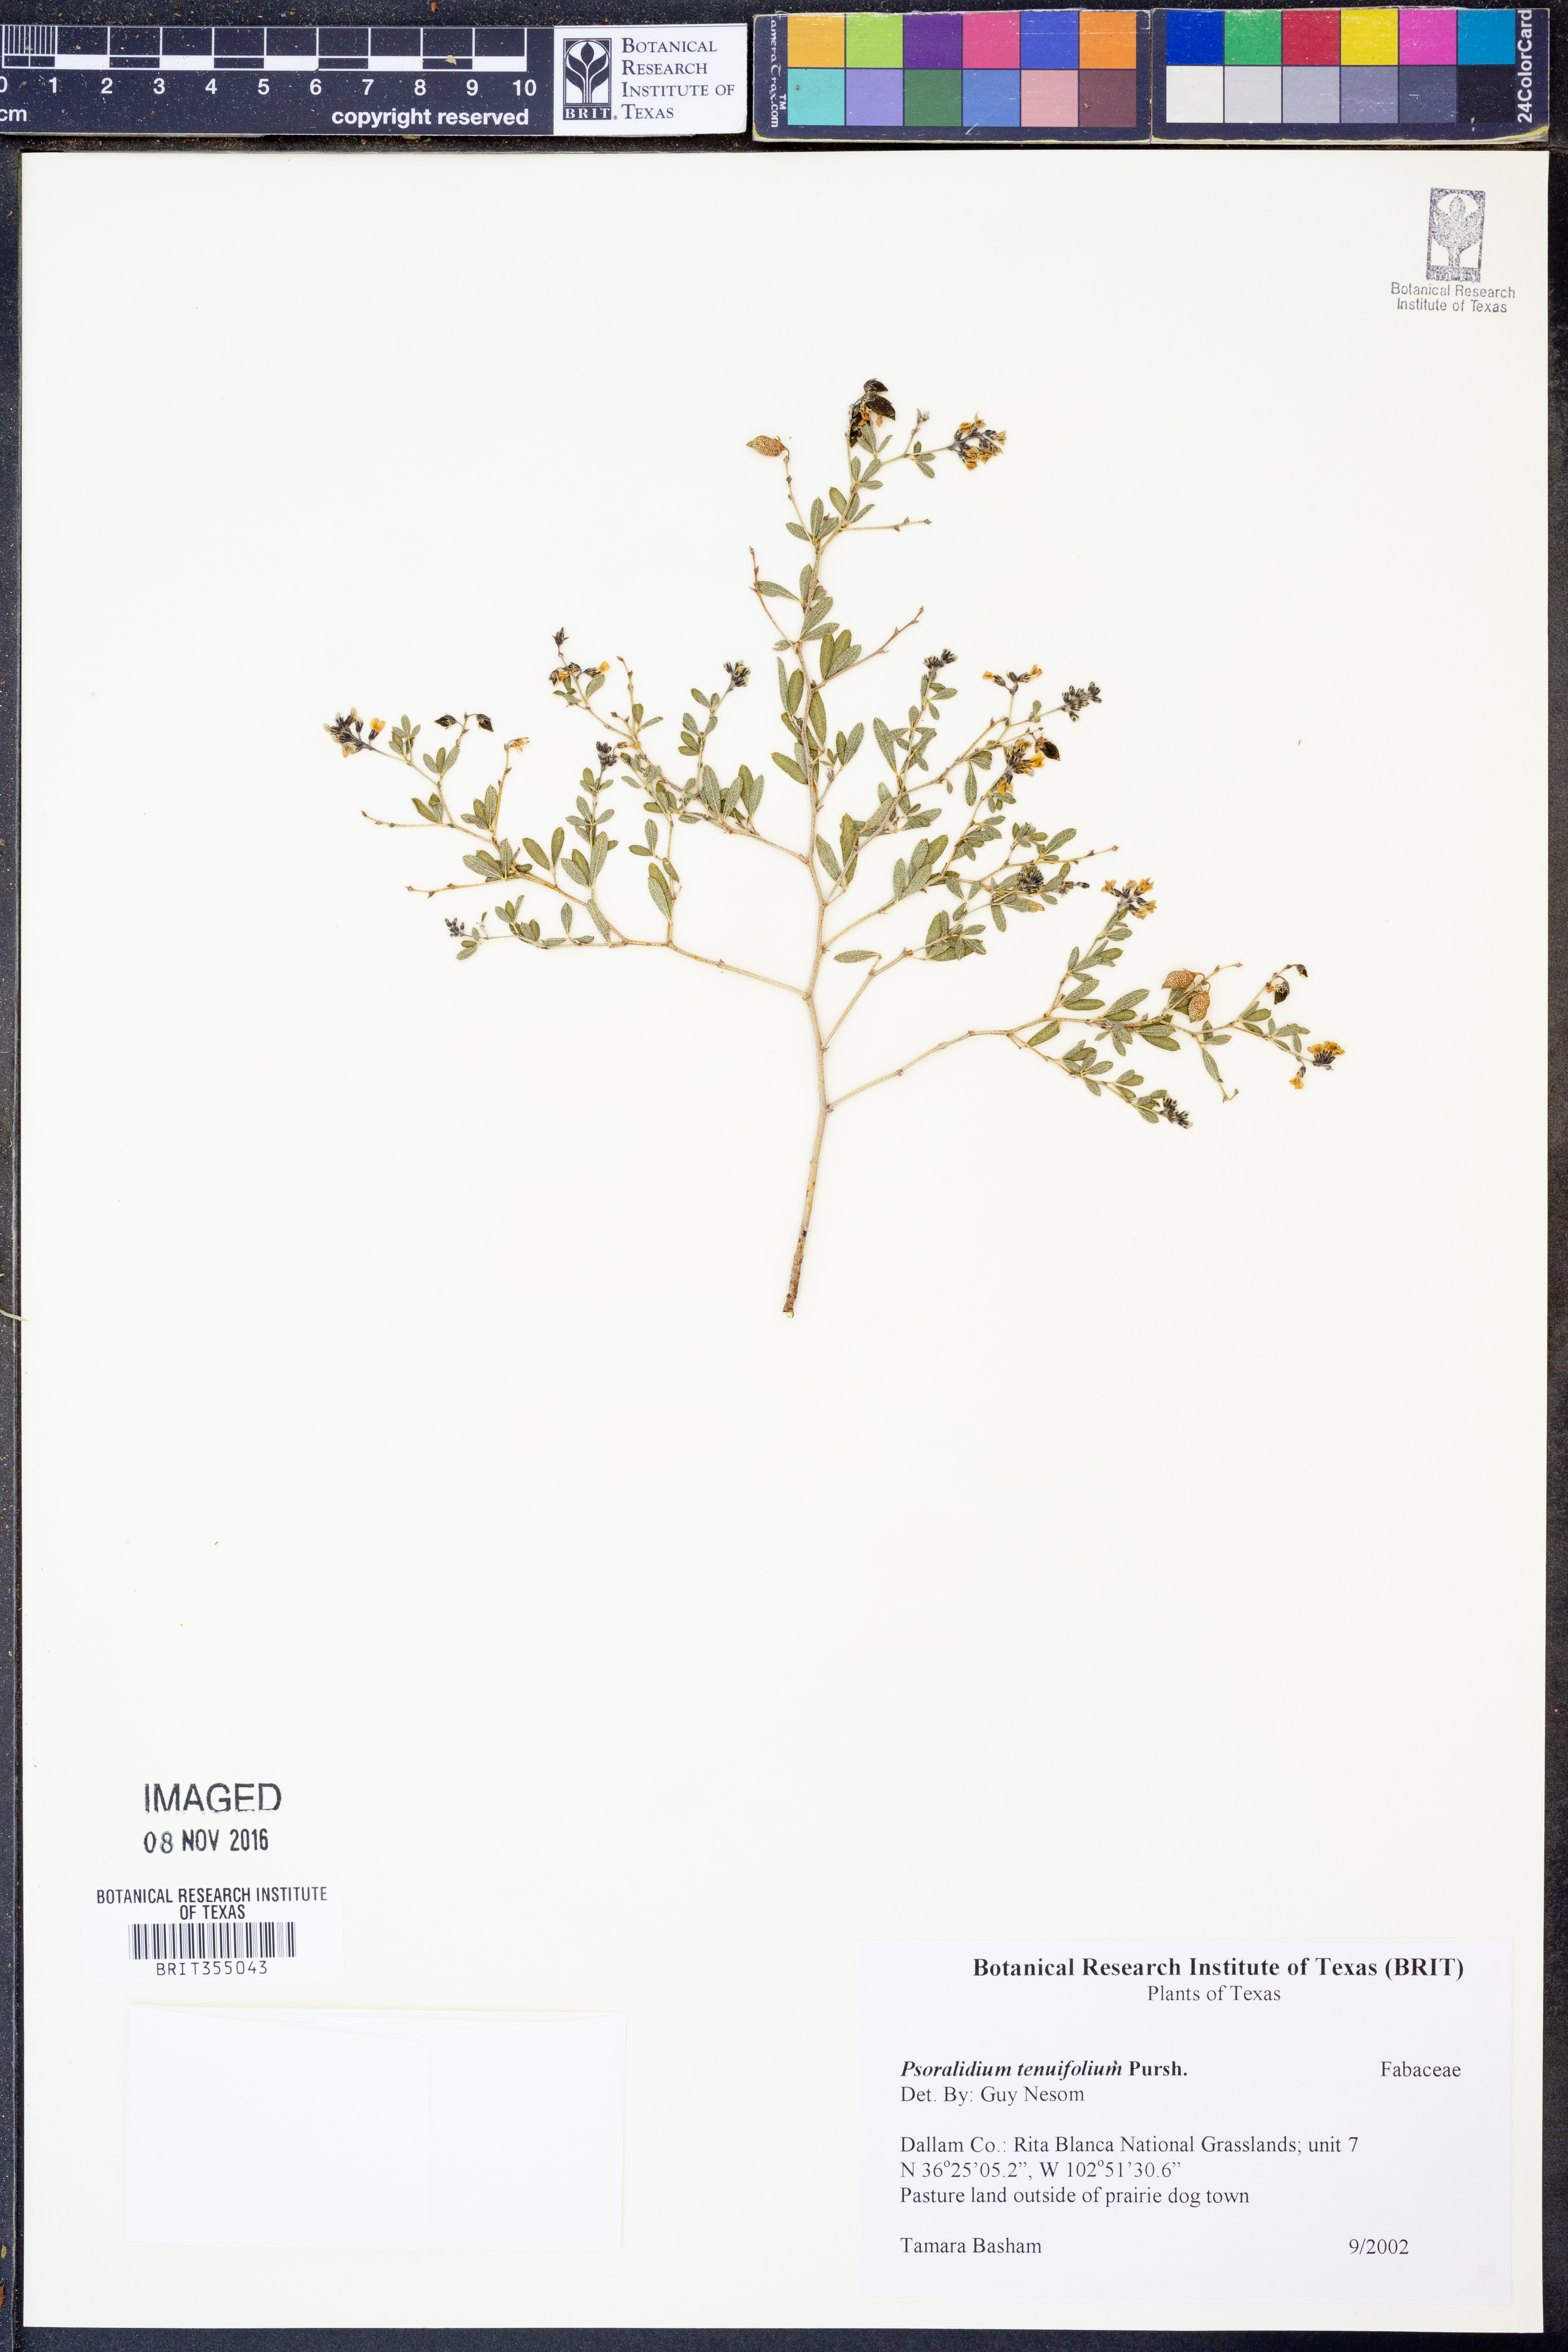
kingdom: Plantae
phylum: Tracheophyta
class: Magnoliopsida
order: Fabales
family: Fabaceae
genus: Pediomelum
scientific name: Pediomelum tenuiflorum
